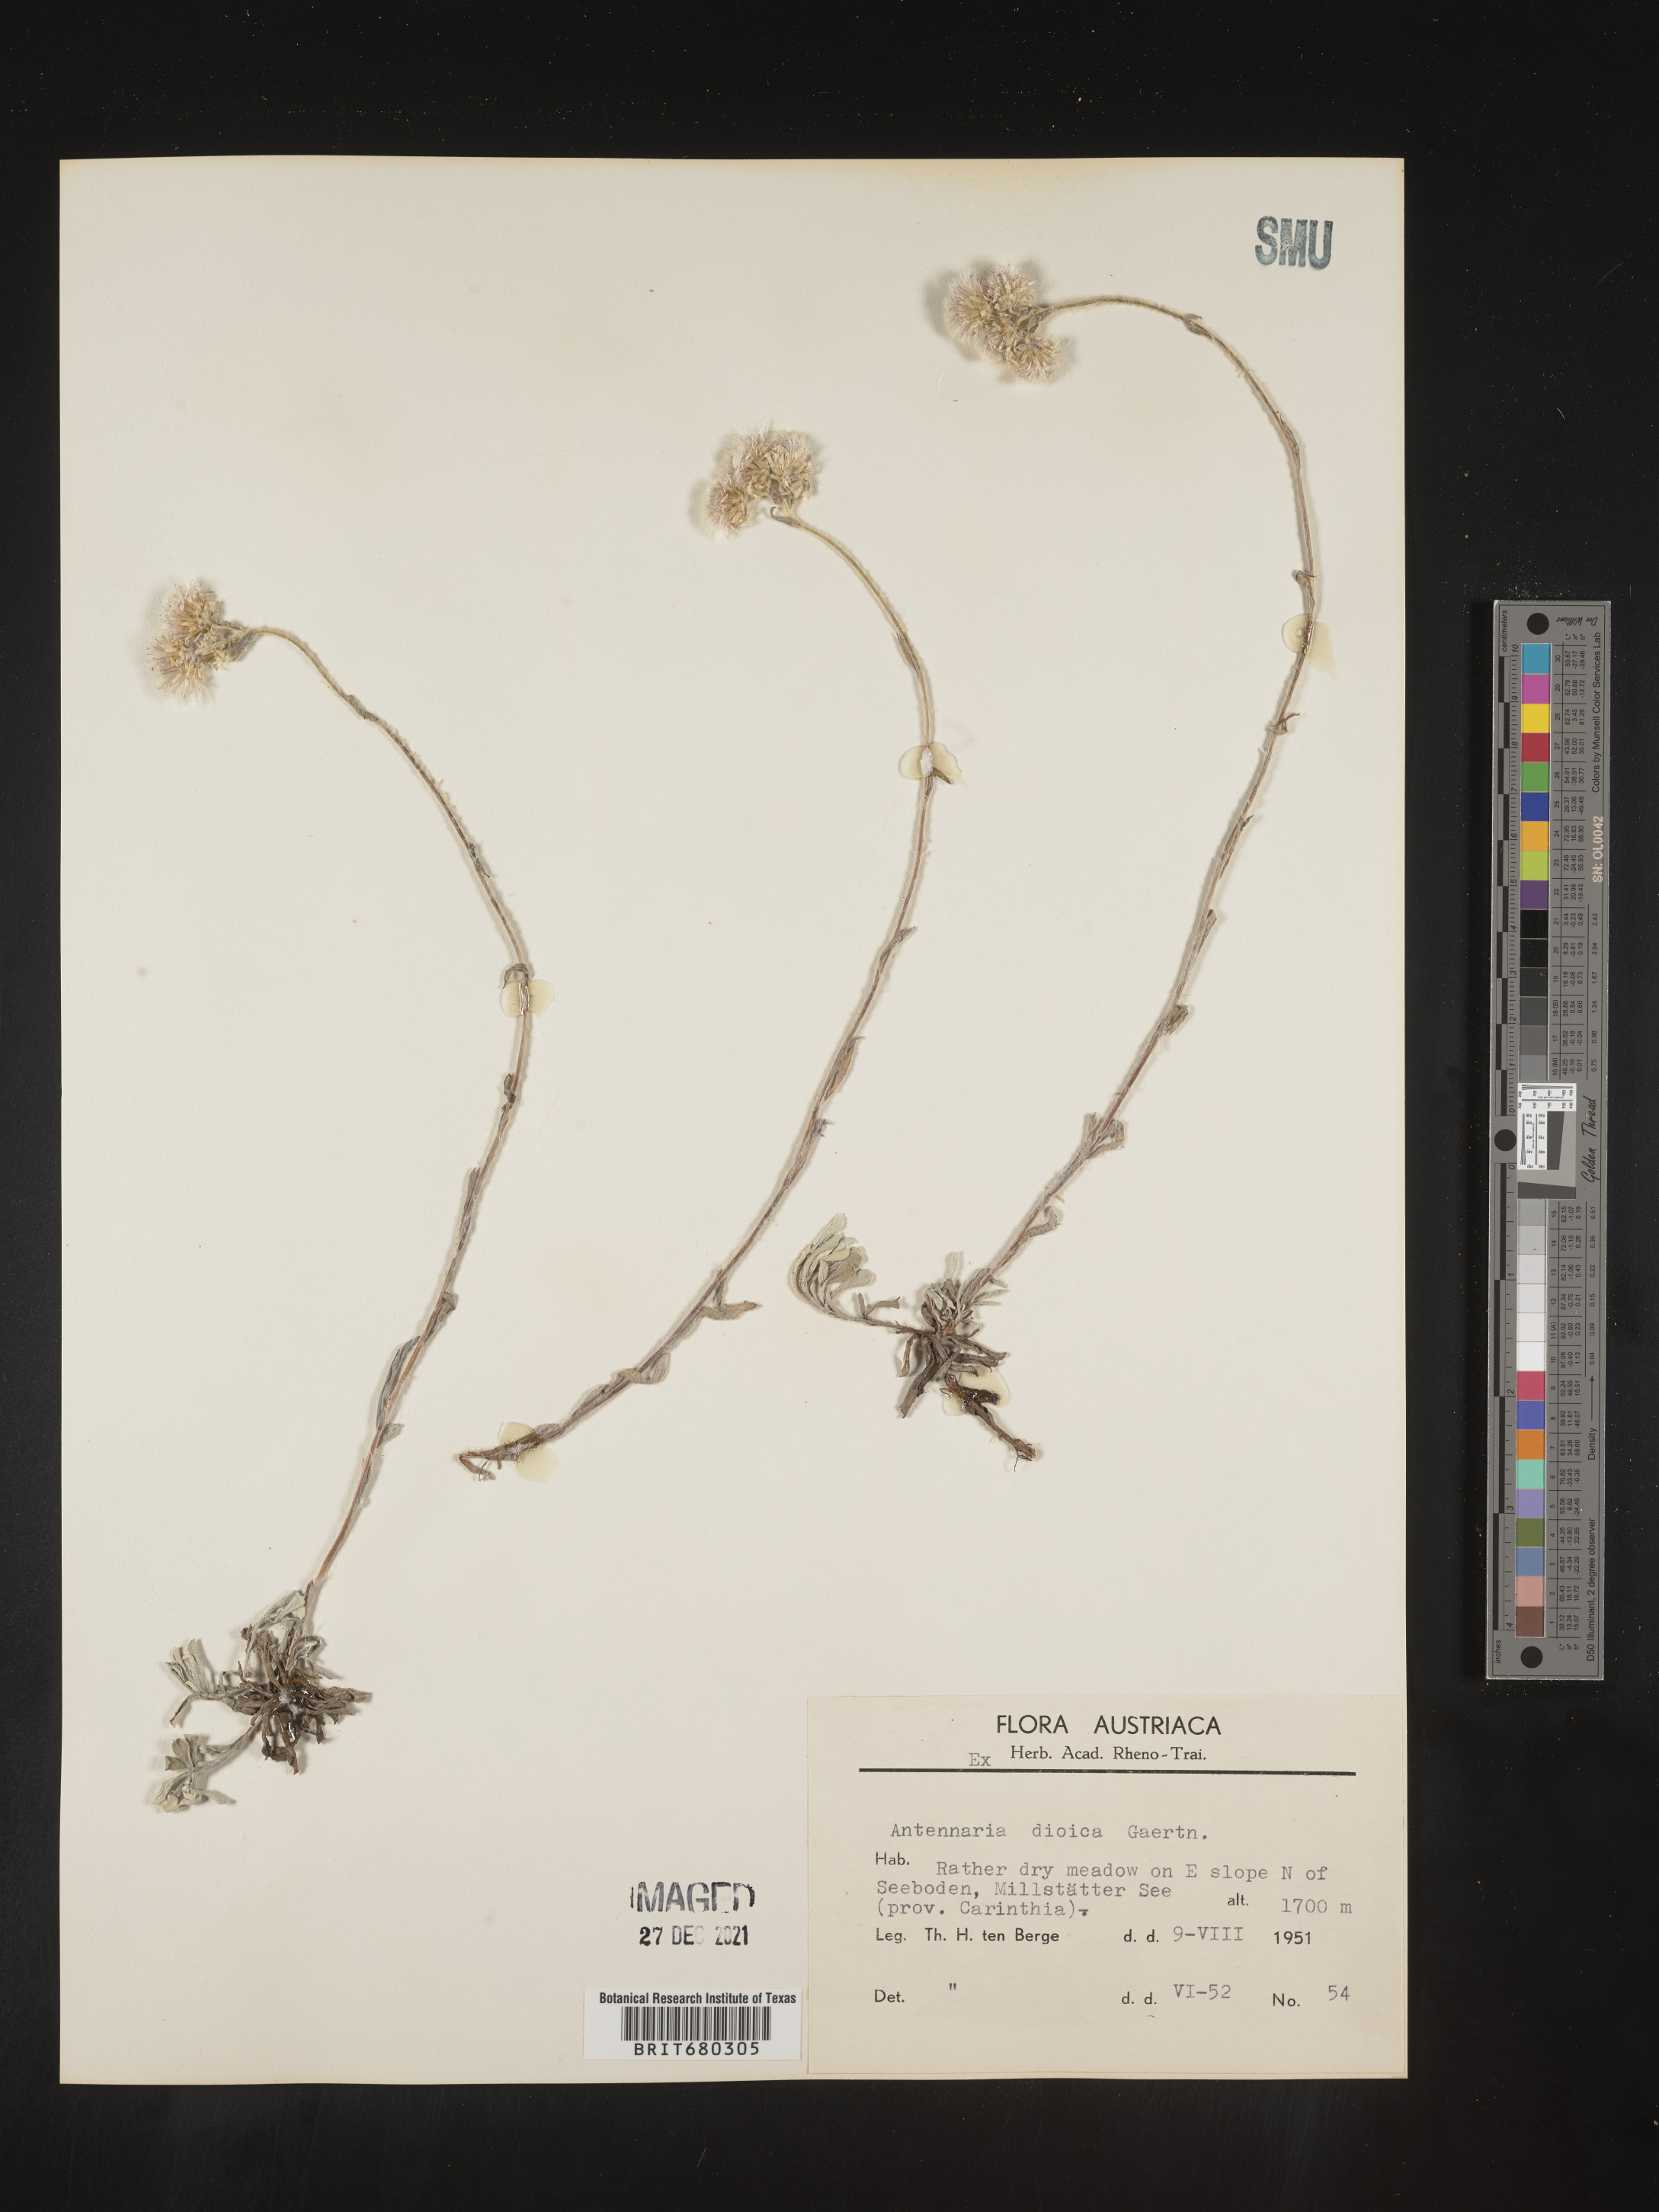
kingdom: Plantae
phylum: Tracheophyta
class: Magnoliopsida
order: Asterales
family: Asteraceae
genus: Antennaria
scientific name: Antennaria dioica
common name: Mountain everlasting
